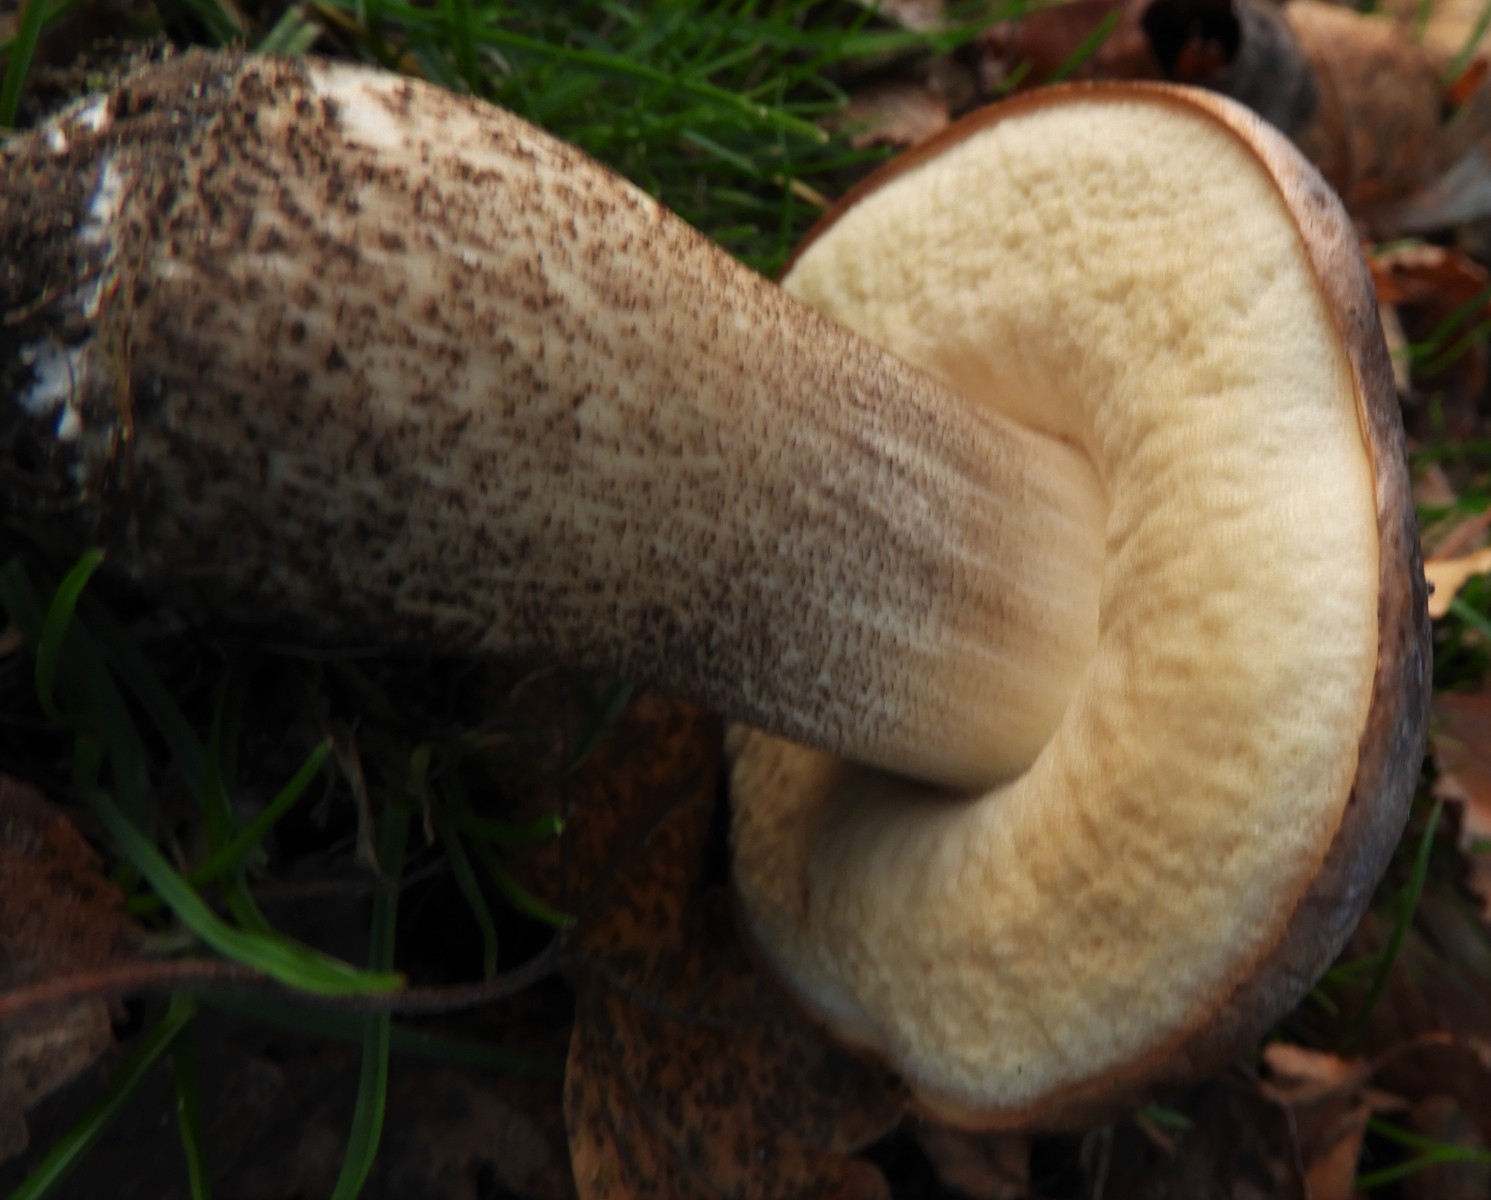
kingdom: Fungi
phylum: Basidiomycota
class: Agaricomycetes
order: Boletales
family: Boletaceae
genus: Leccinum
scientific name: Leccinum scabrum
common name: brun skælrørhat
